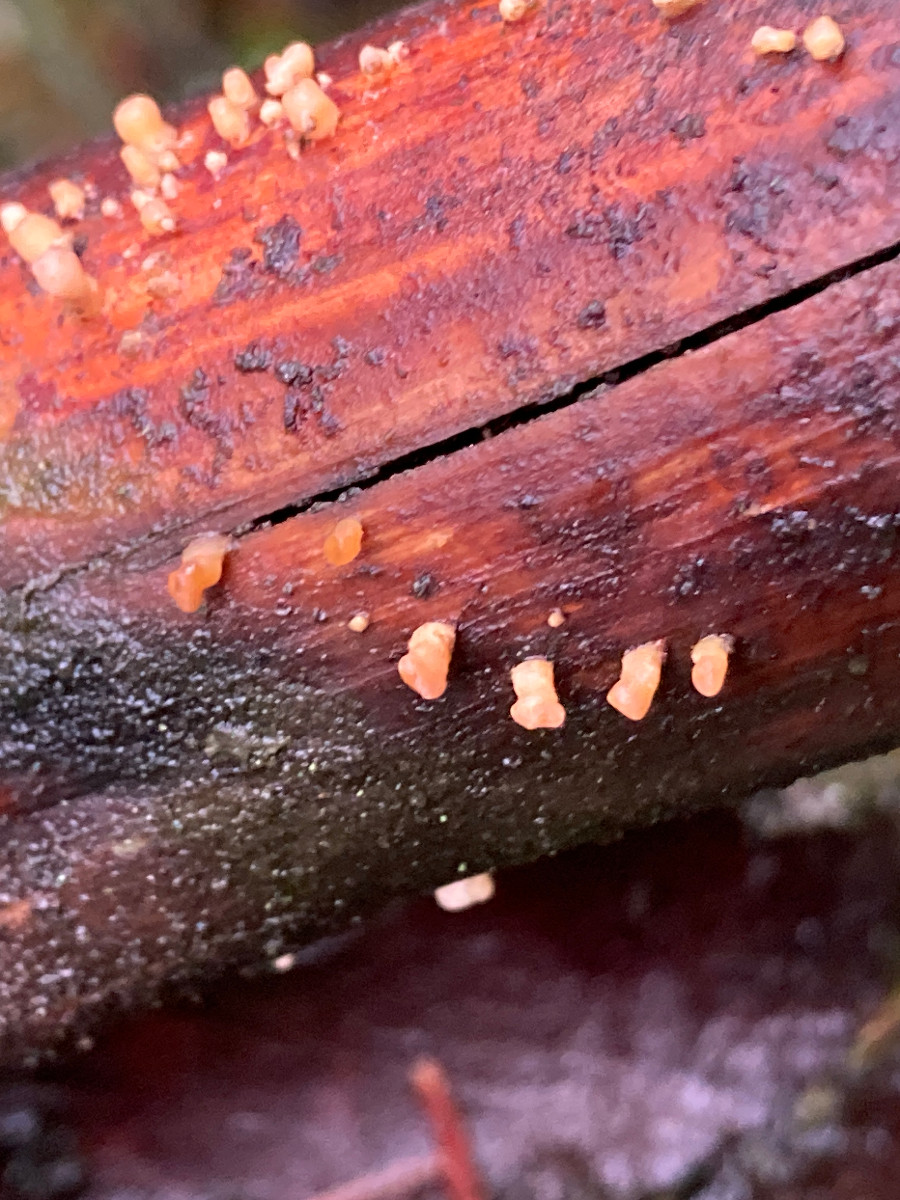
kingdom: Fungi
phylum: Basidiomycota
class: Dacrymycetes
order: Dacrymycetales
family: Dacrymycetaceae
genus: Ditiola
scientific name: Ditiola radicata
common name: rod-tåresvamp
